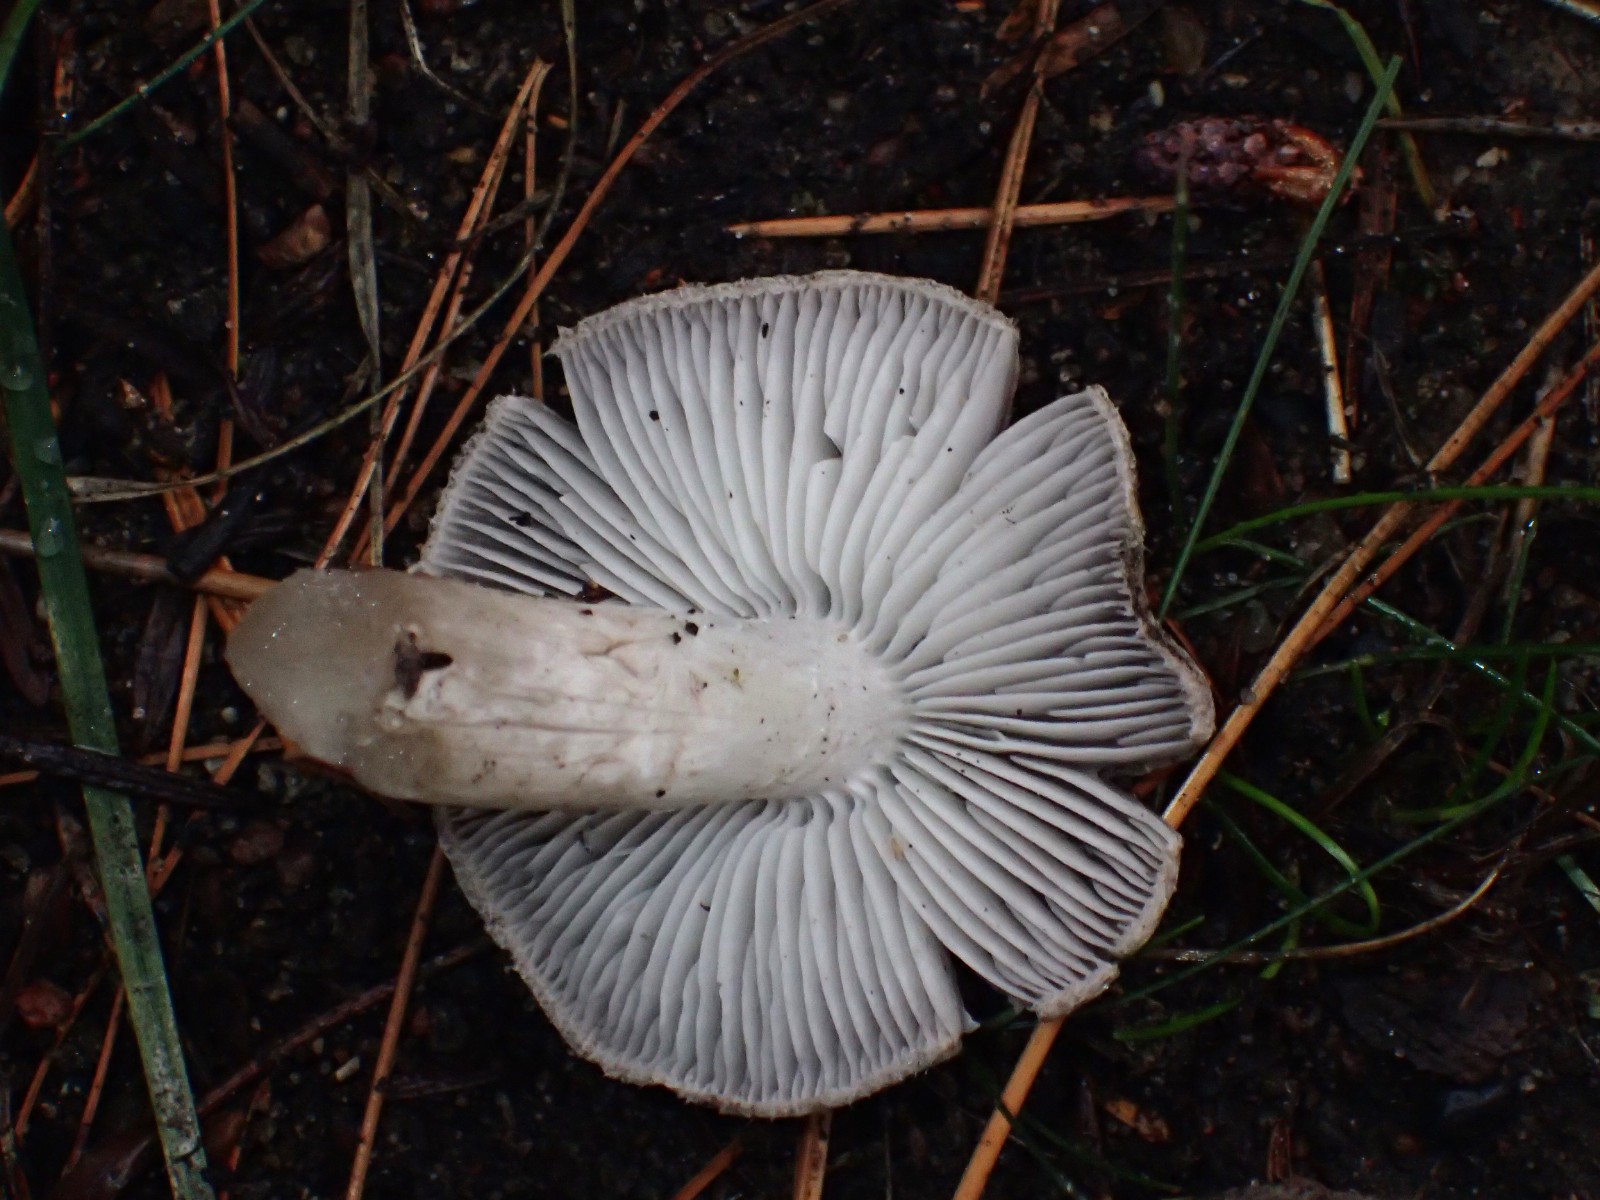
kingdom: Fungi
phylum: Basidiomycota
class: Agaricomycetes
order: Agaricales
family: Tricholomataceae
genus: Tricholoma
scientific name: Tricholoma terreum
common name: jordfarvet ridderhat
